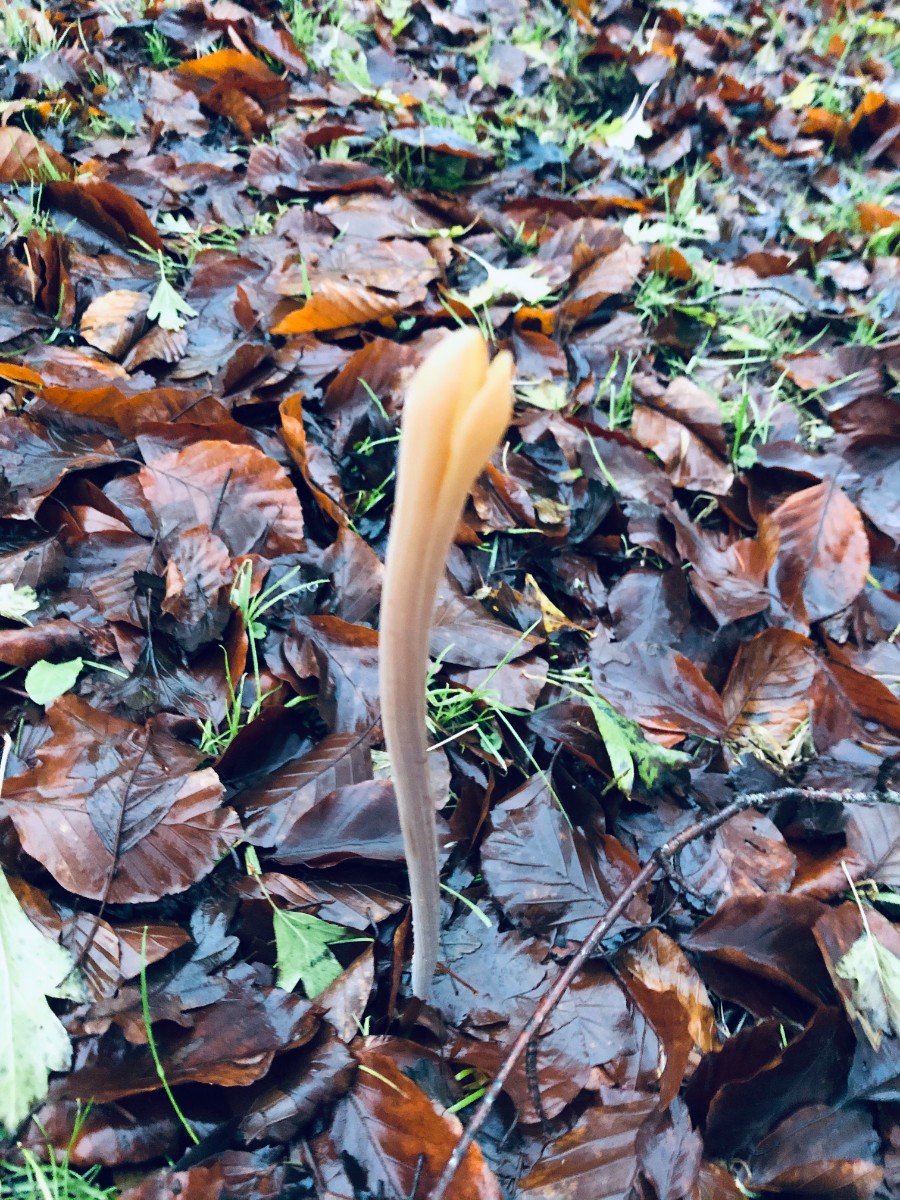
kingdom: Fungi
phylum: Basidiomycota
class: Agaricomycetes
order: Agaricales
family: Typhulaceae
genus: Typhula
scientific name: Typhula fistulosa
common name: pibet rørkølle
